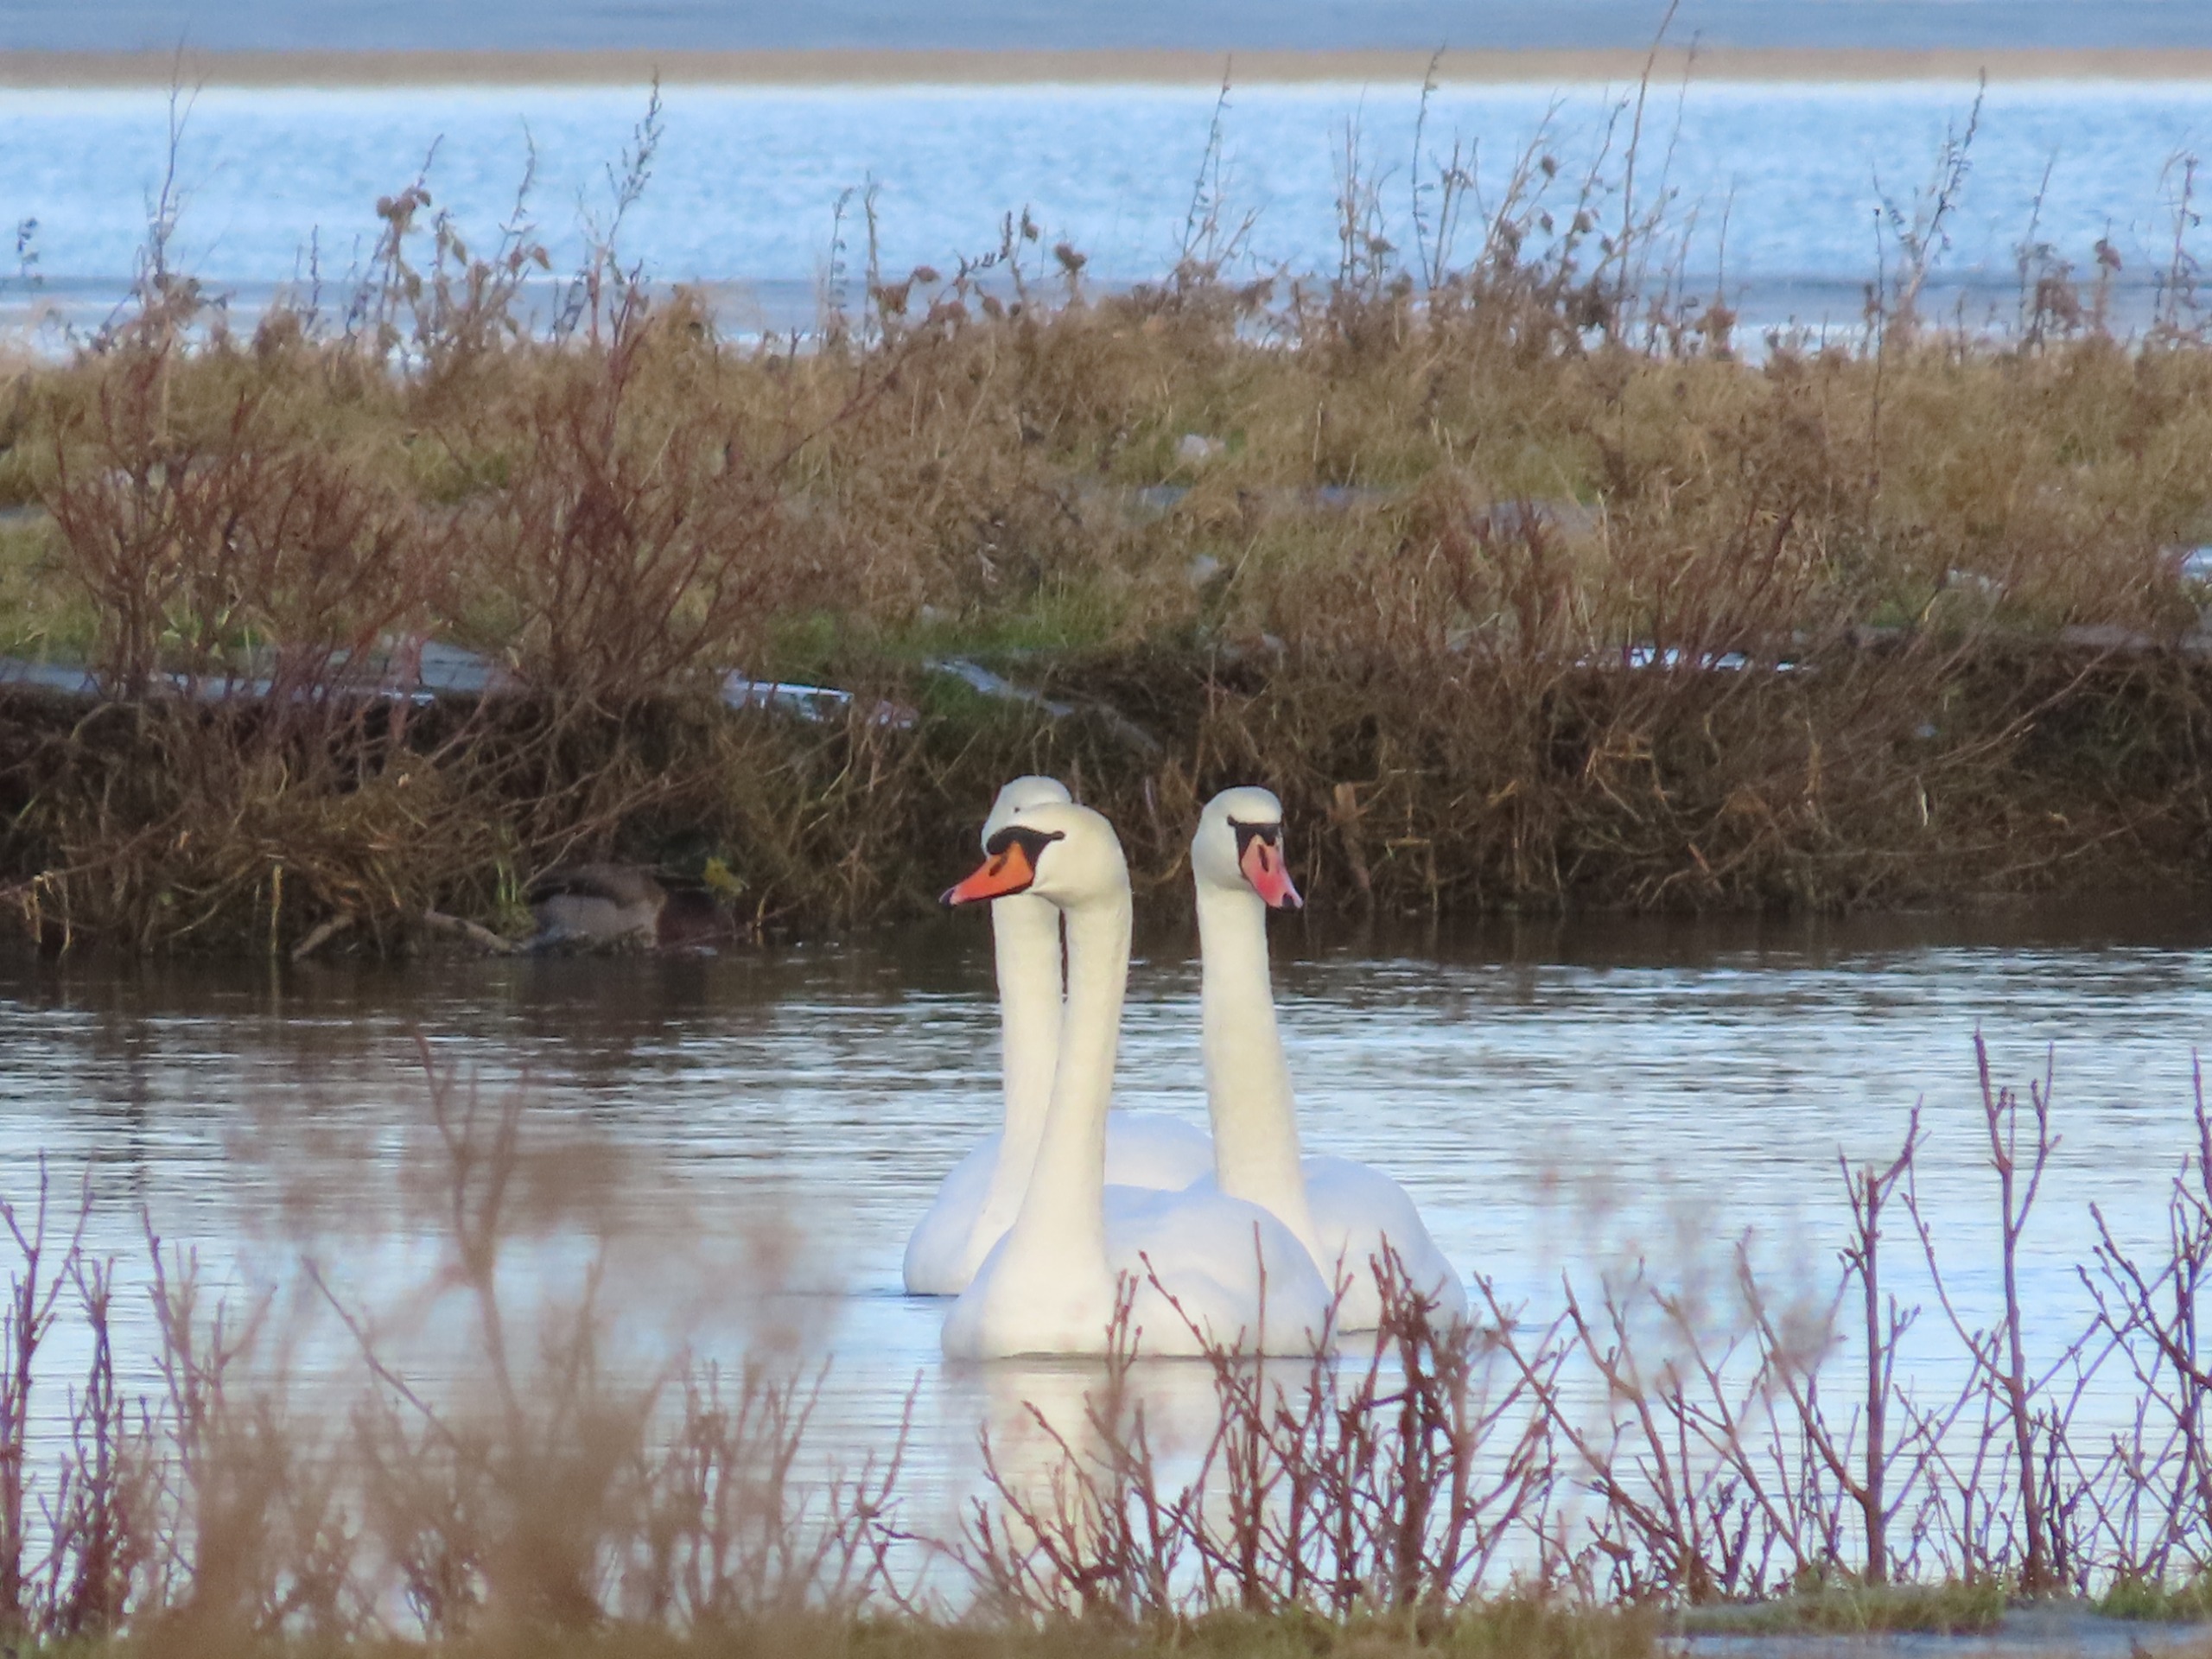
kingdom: Animalia
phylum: Chordata
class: Aves
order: Anseriformes
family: Anatidae
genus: Cygnus
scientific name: Cygnus olor
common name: Knopsvane
